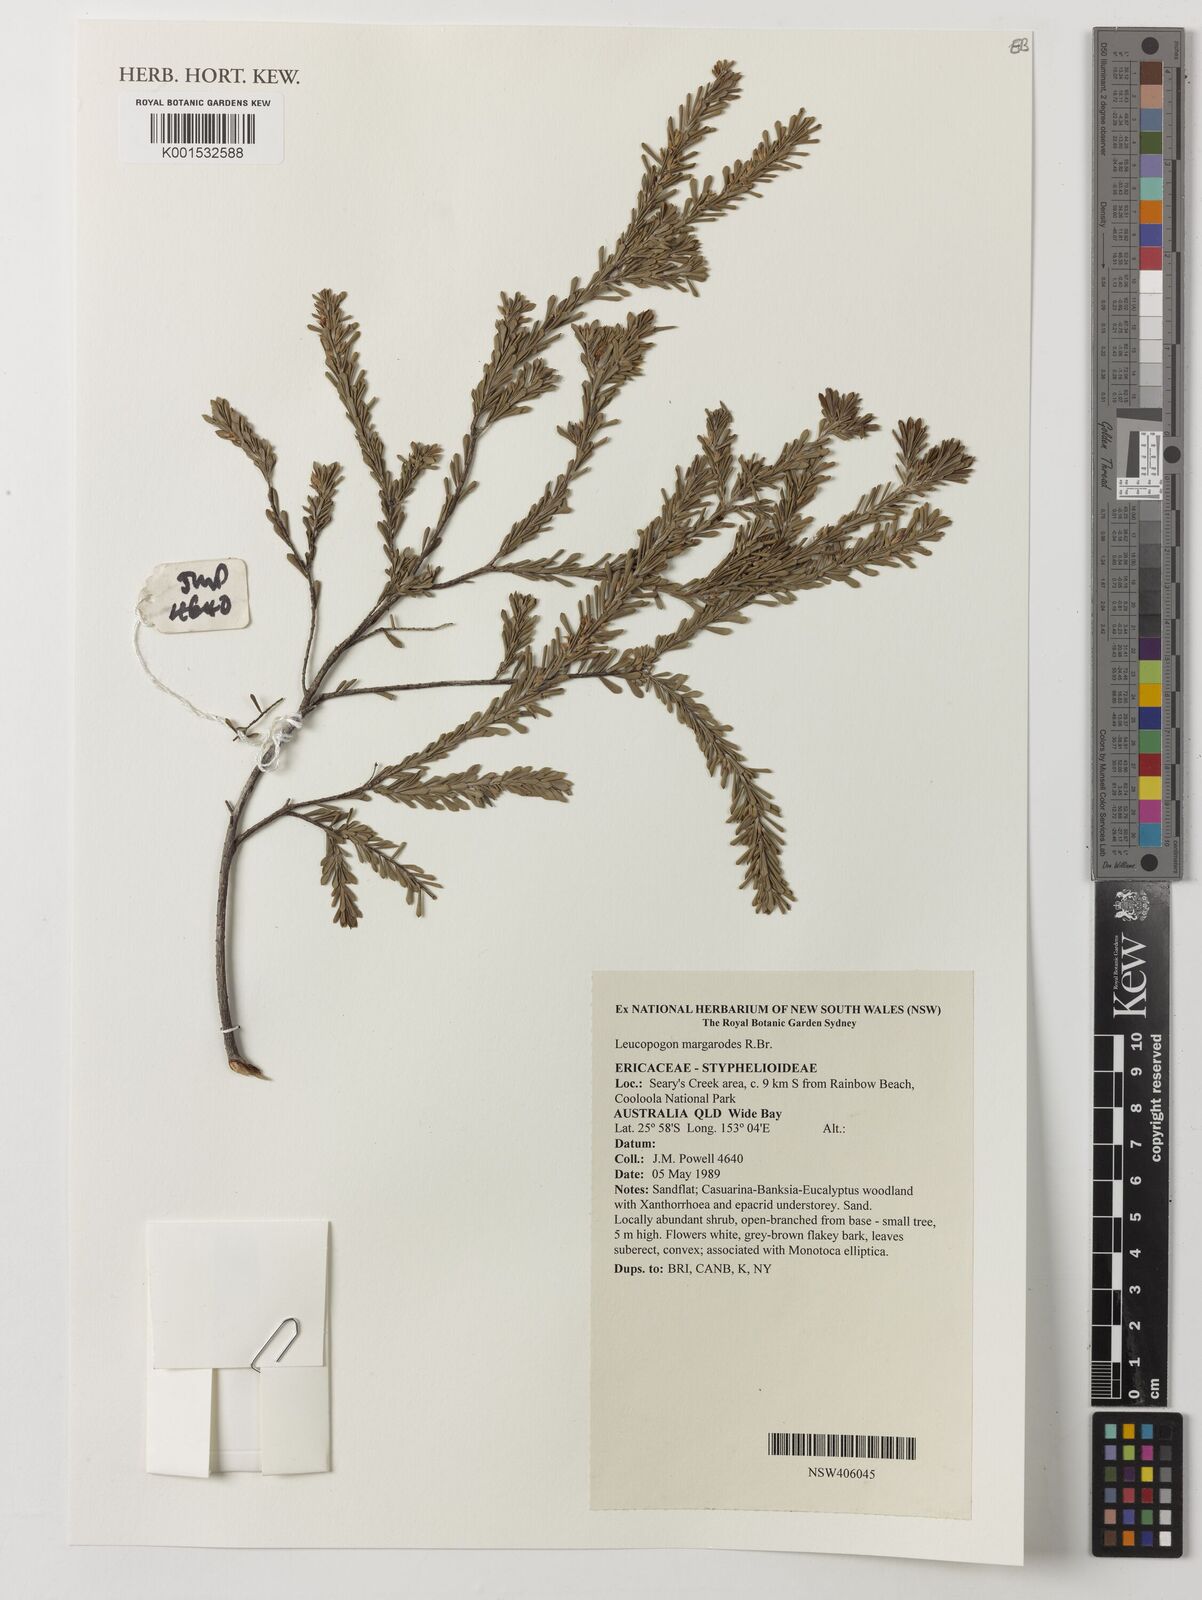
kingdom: Plantae
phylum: Tracheophyta
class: Magnoliopsida
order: Ericales
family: Ericaceae
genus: Styphelia
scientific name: Styphelia margarodes
